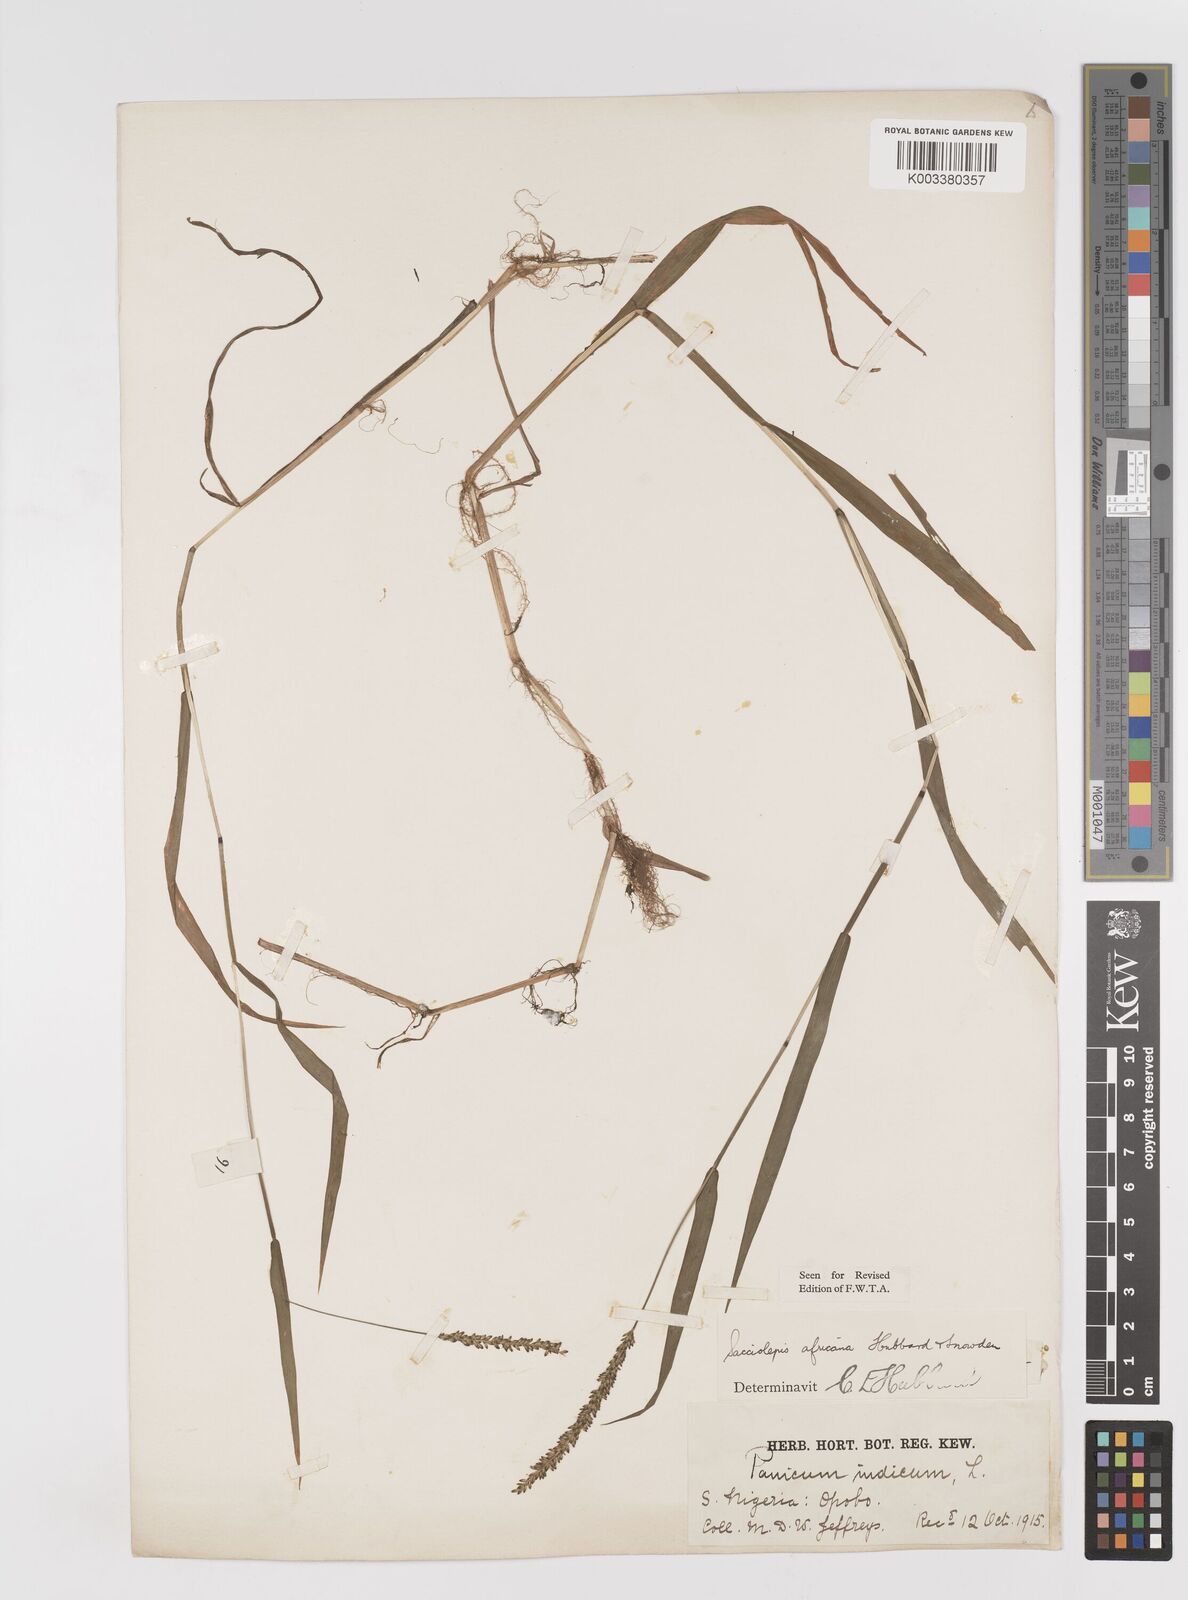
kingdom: Plantae
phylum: Tracheophyta
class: Liliopsida
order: Poales
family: Poaceae
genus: Sacciolepis
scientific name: Sacciolepis africana
